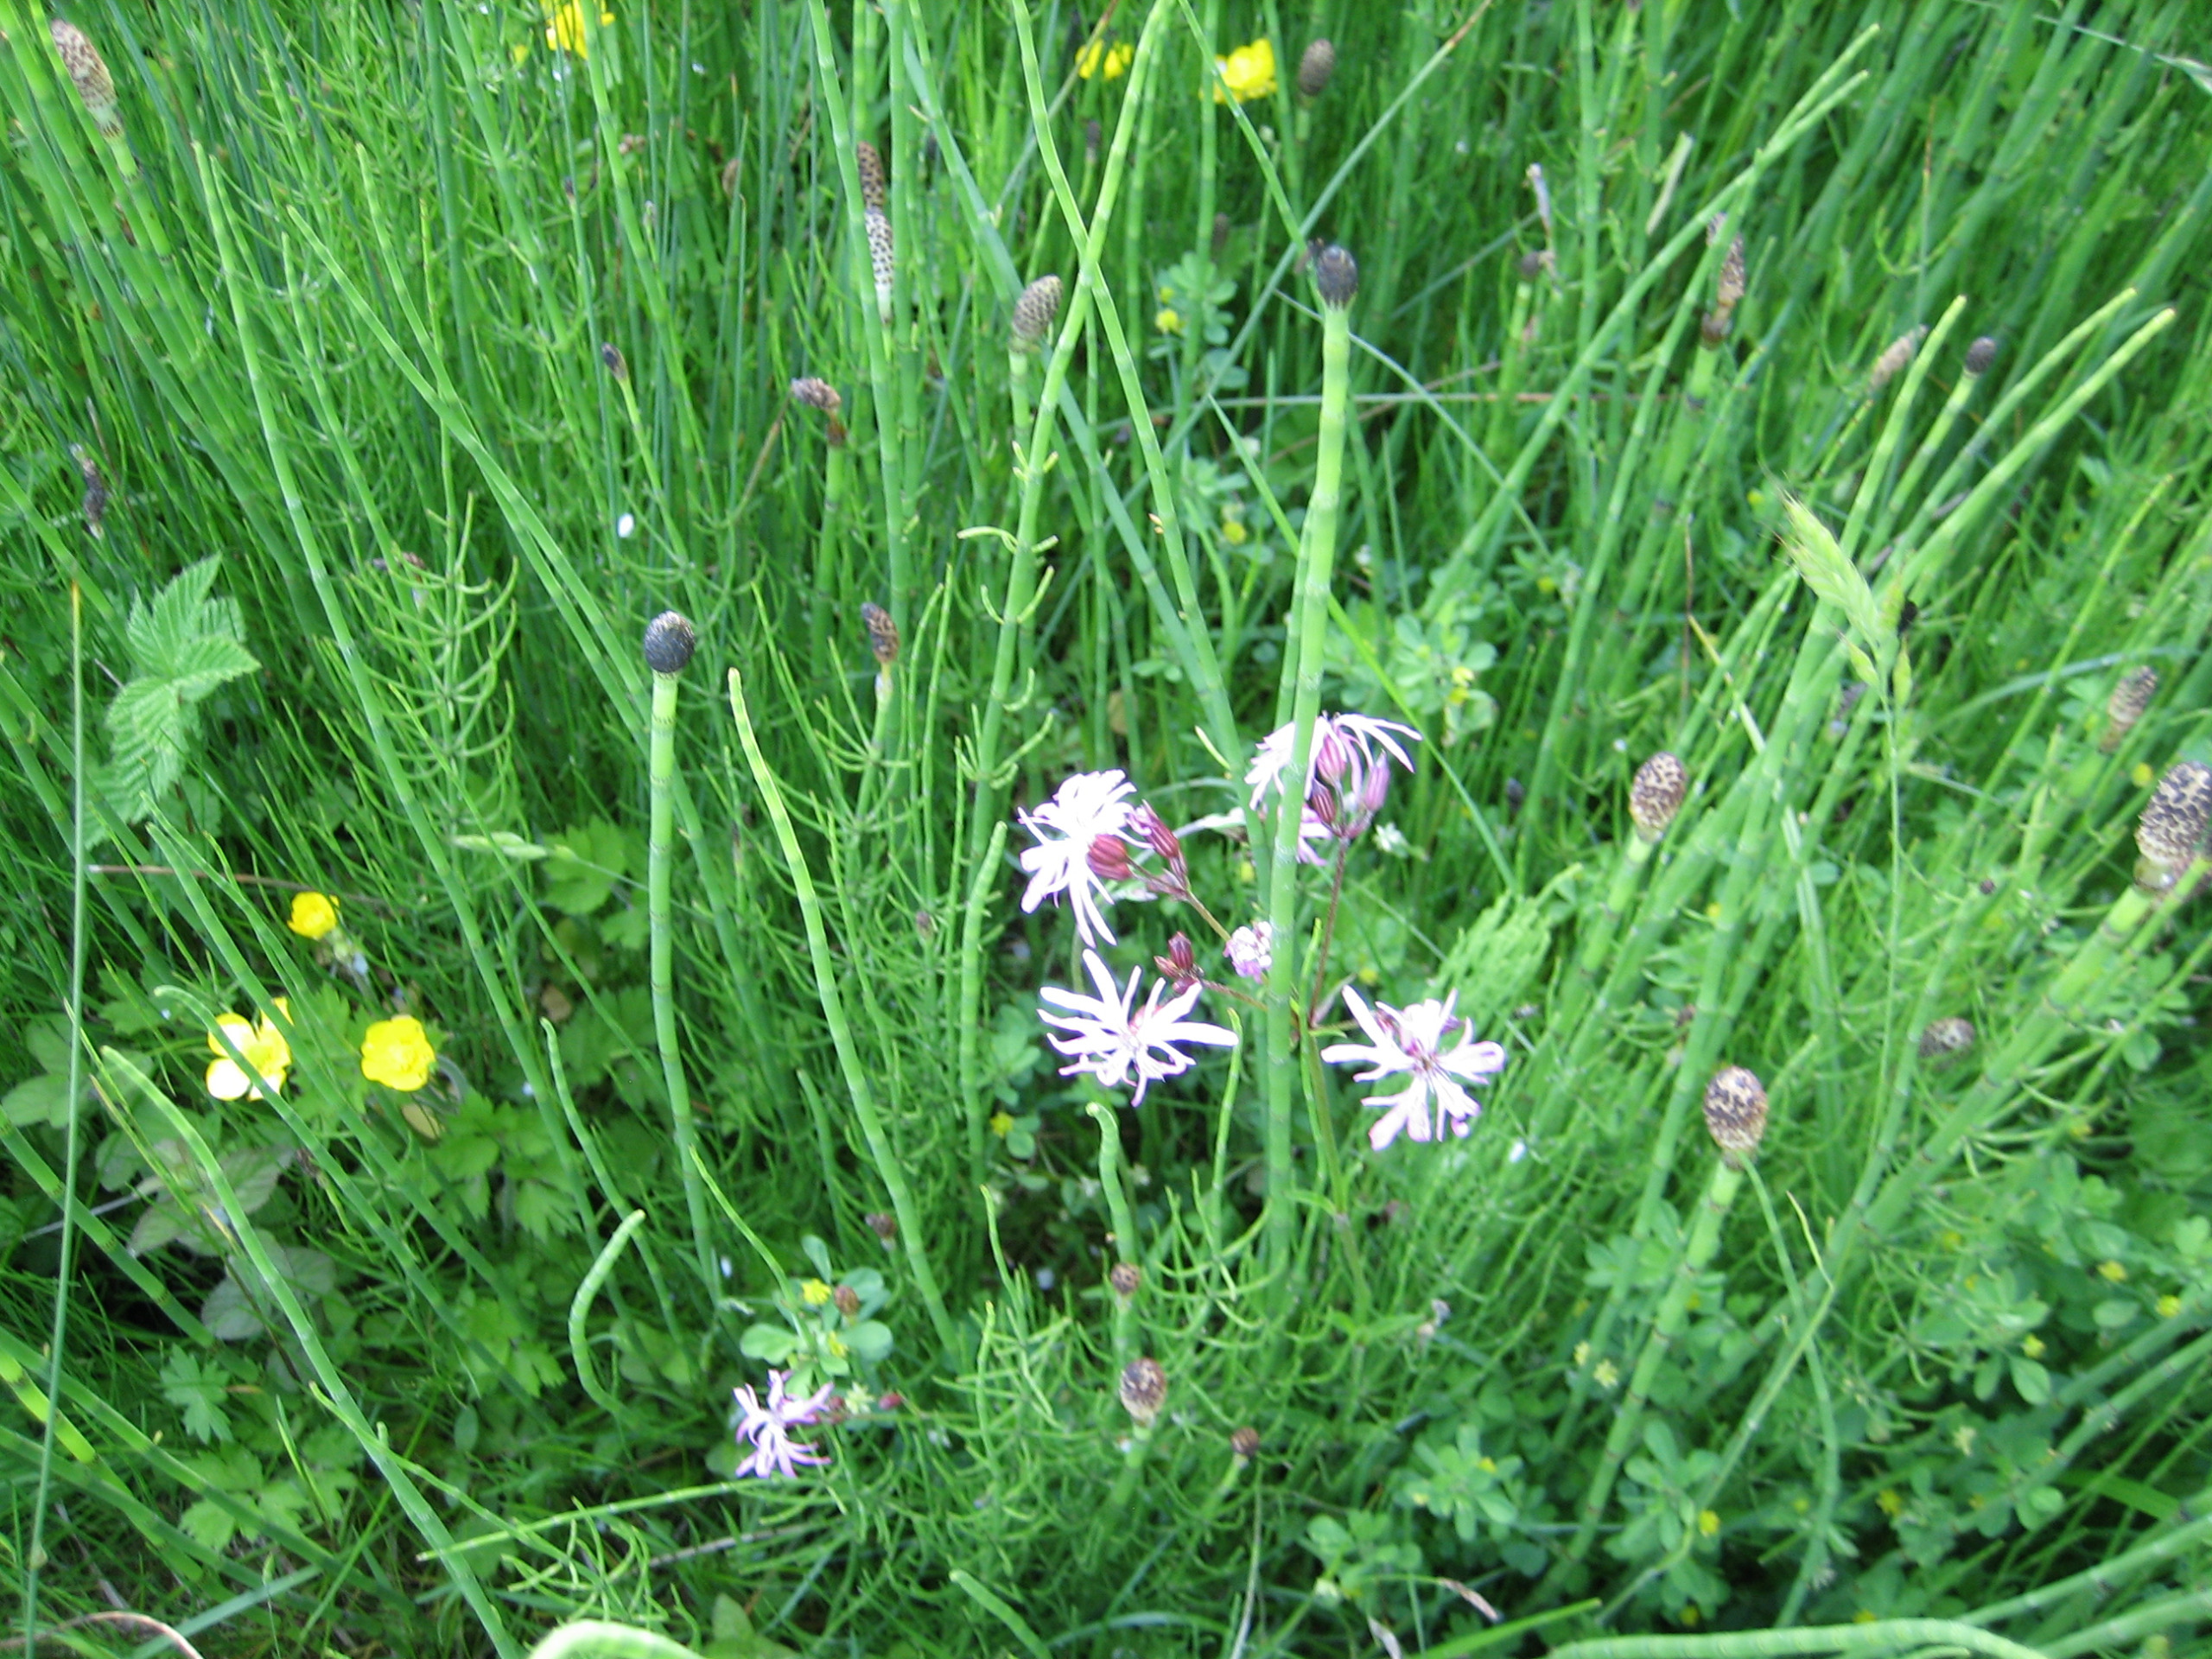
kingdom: Plantae
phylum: Tracheophyta
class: Magnoliopsida
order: Caryophyllales
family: Caryophyllaceae
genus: Silene
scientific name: Silene flos-cuculi
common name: Trævlekrone
